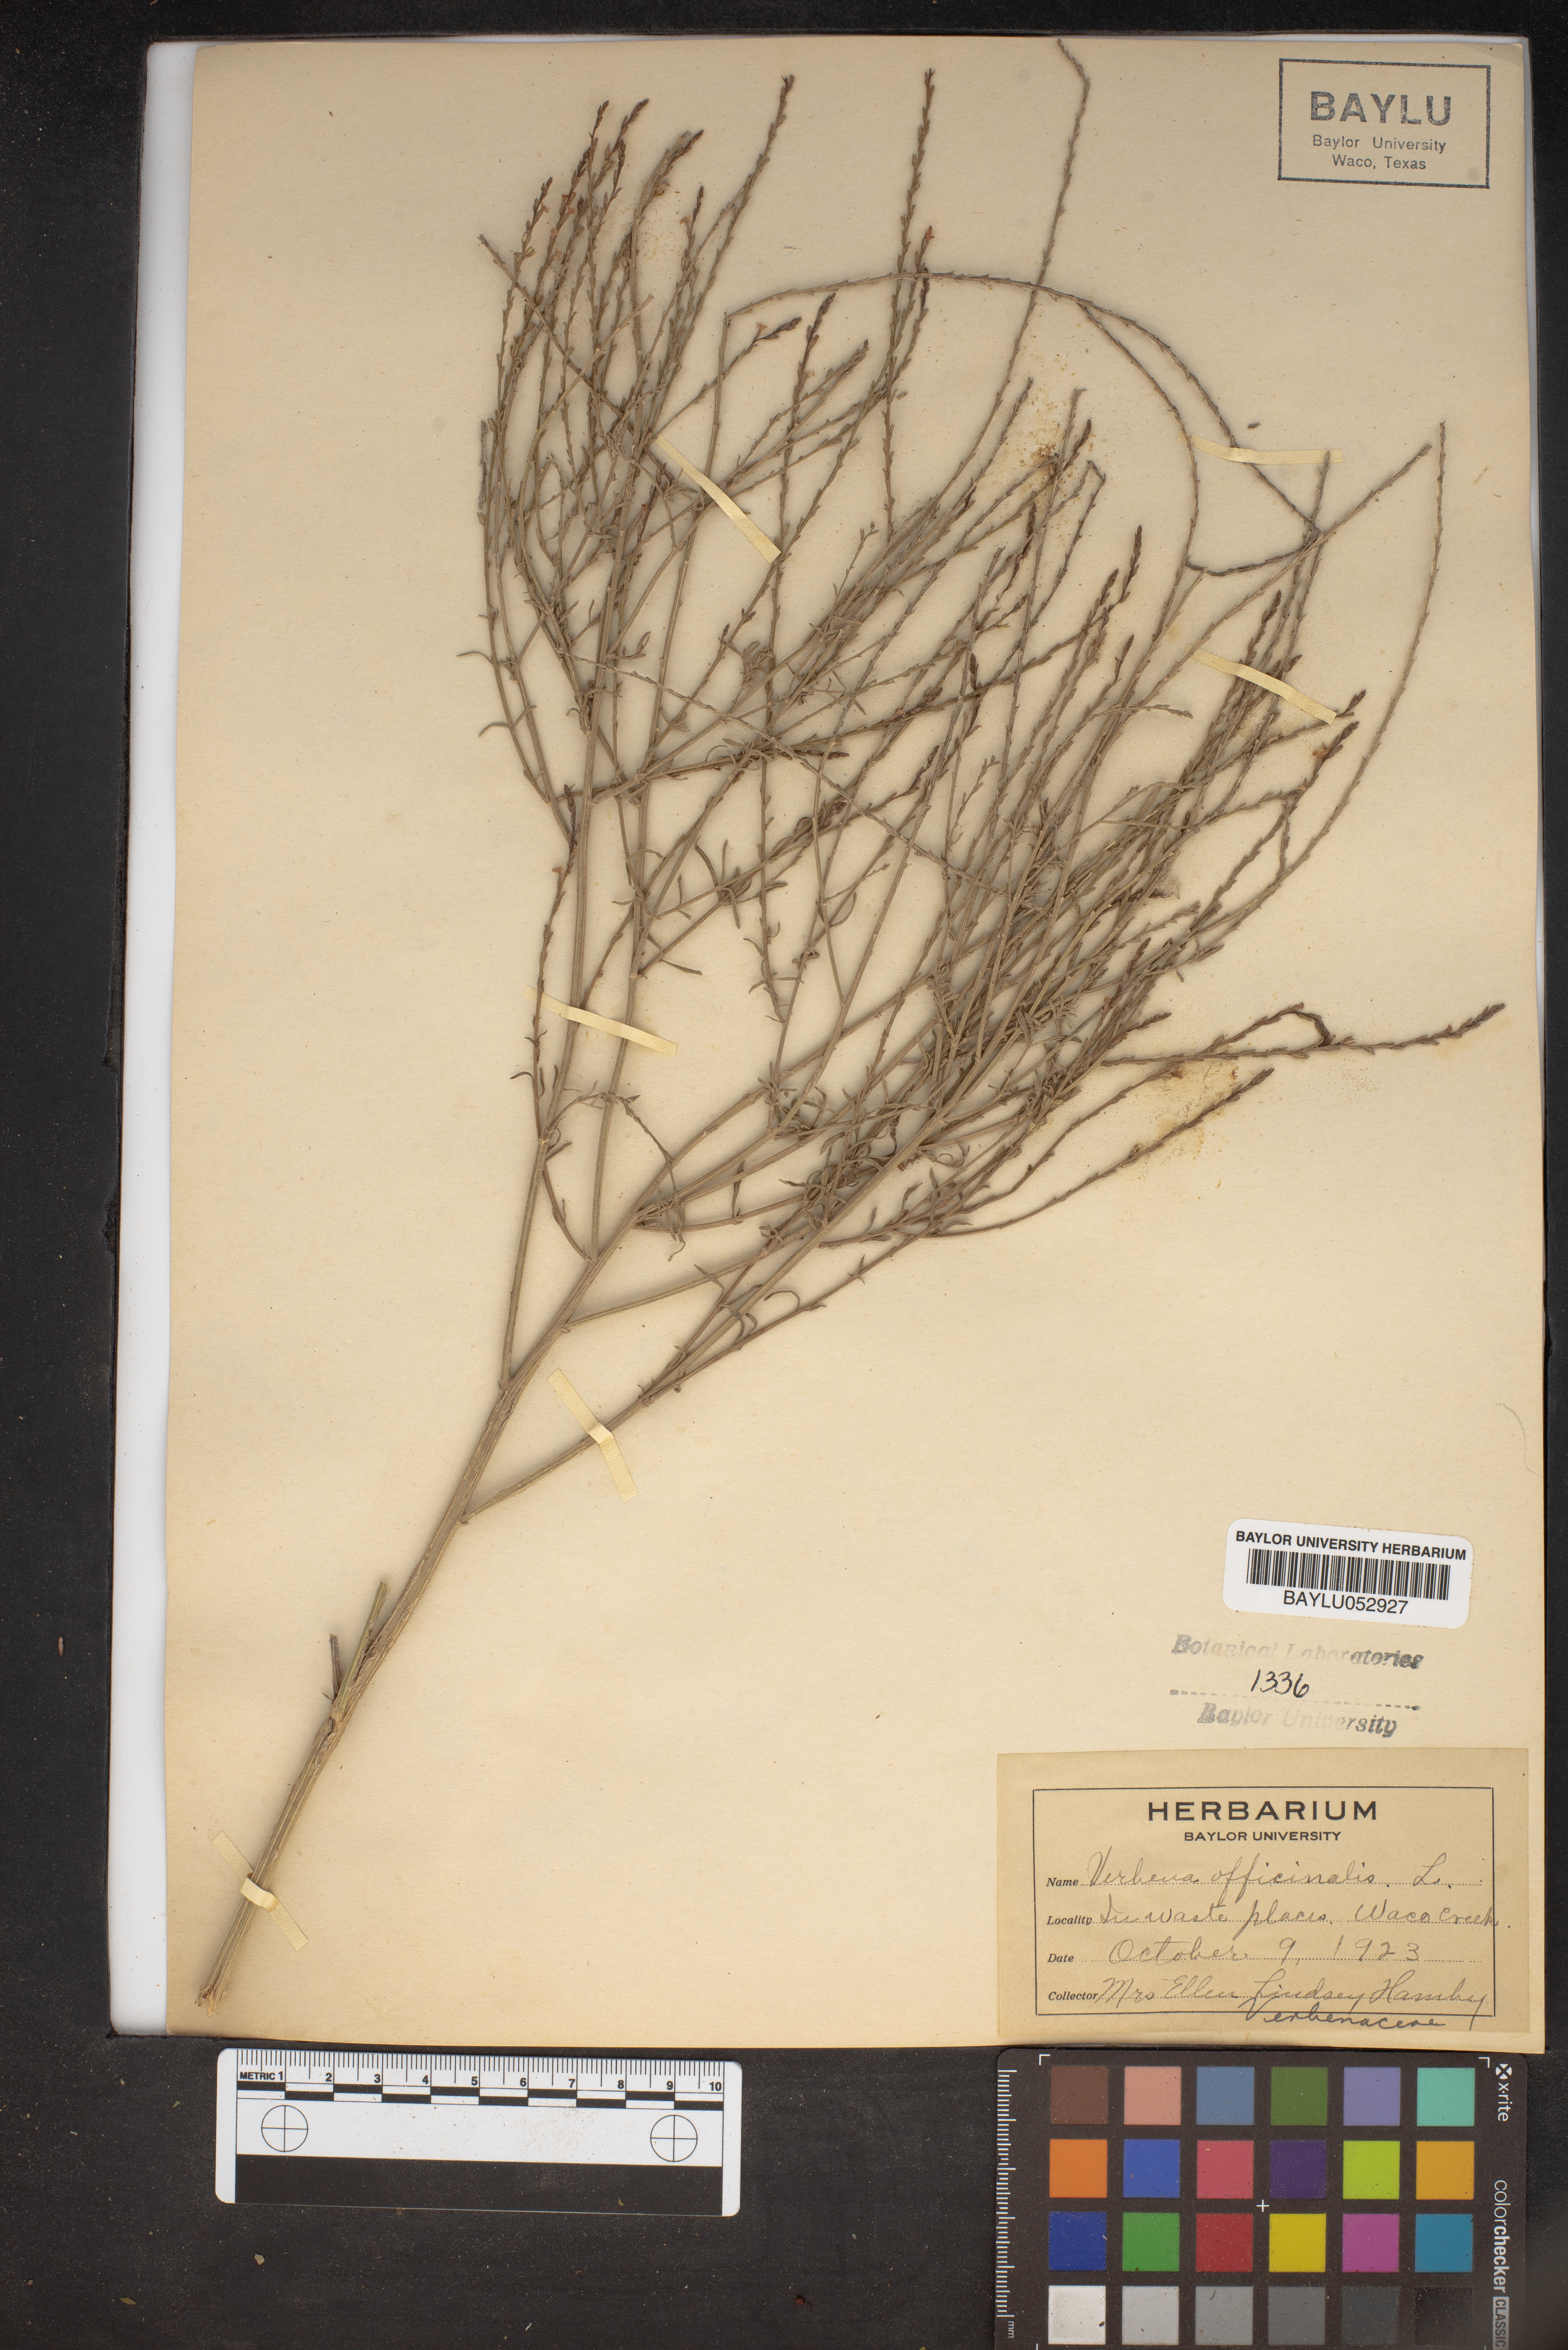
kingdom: Plantae
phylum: Tracheophyta
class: Magnoliopsida
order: Lamiales
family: Verbenaceae
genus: Verbena
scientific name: Verbena officinalis
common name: Vervain
